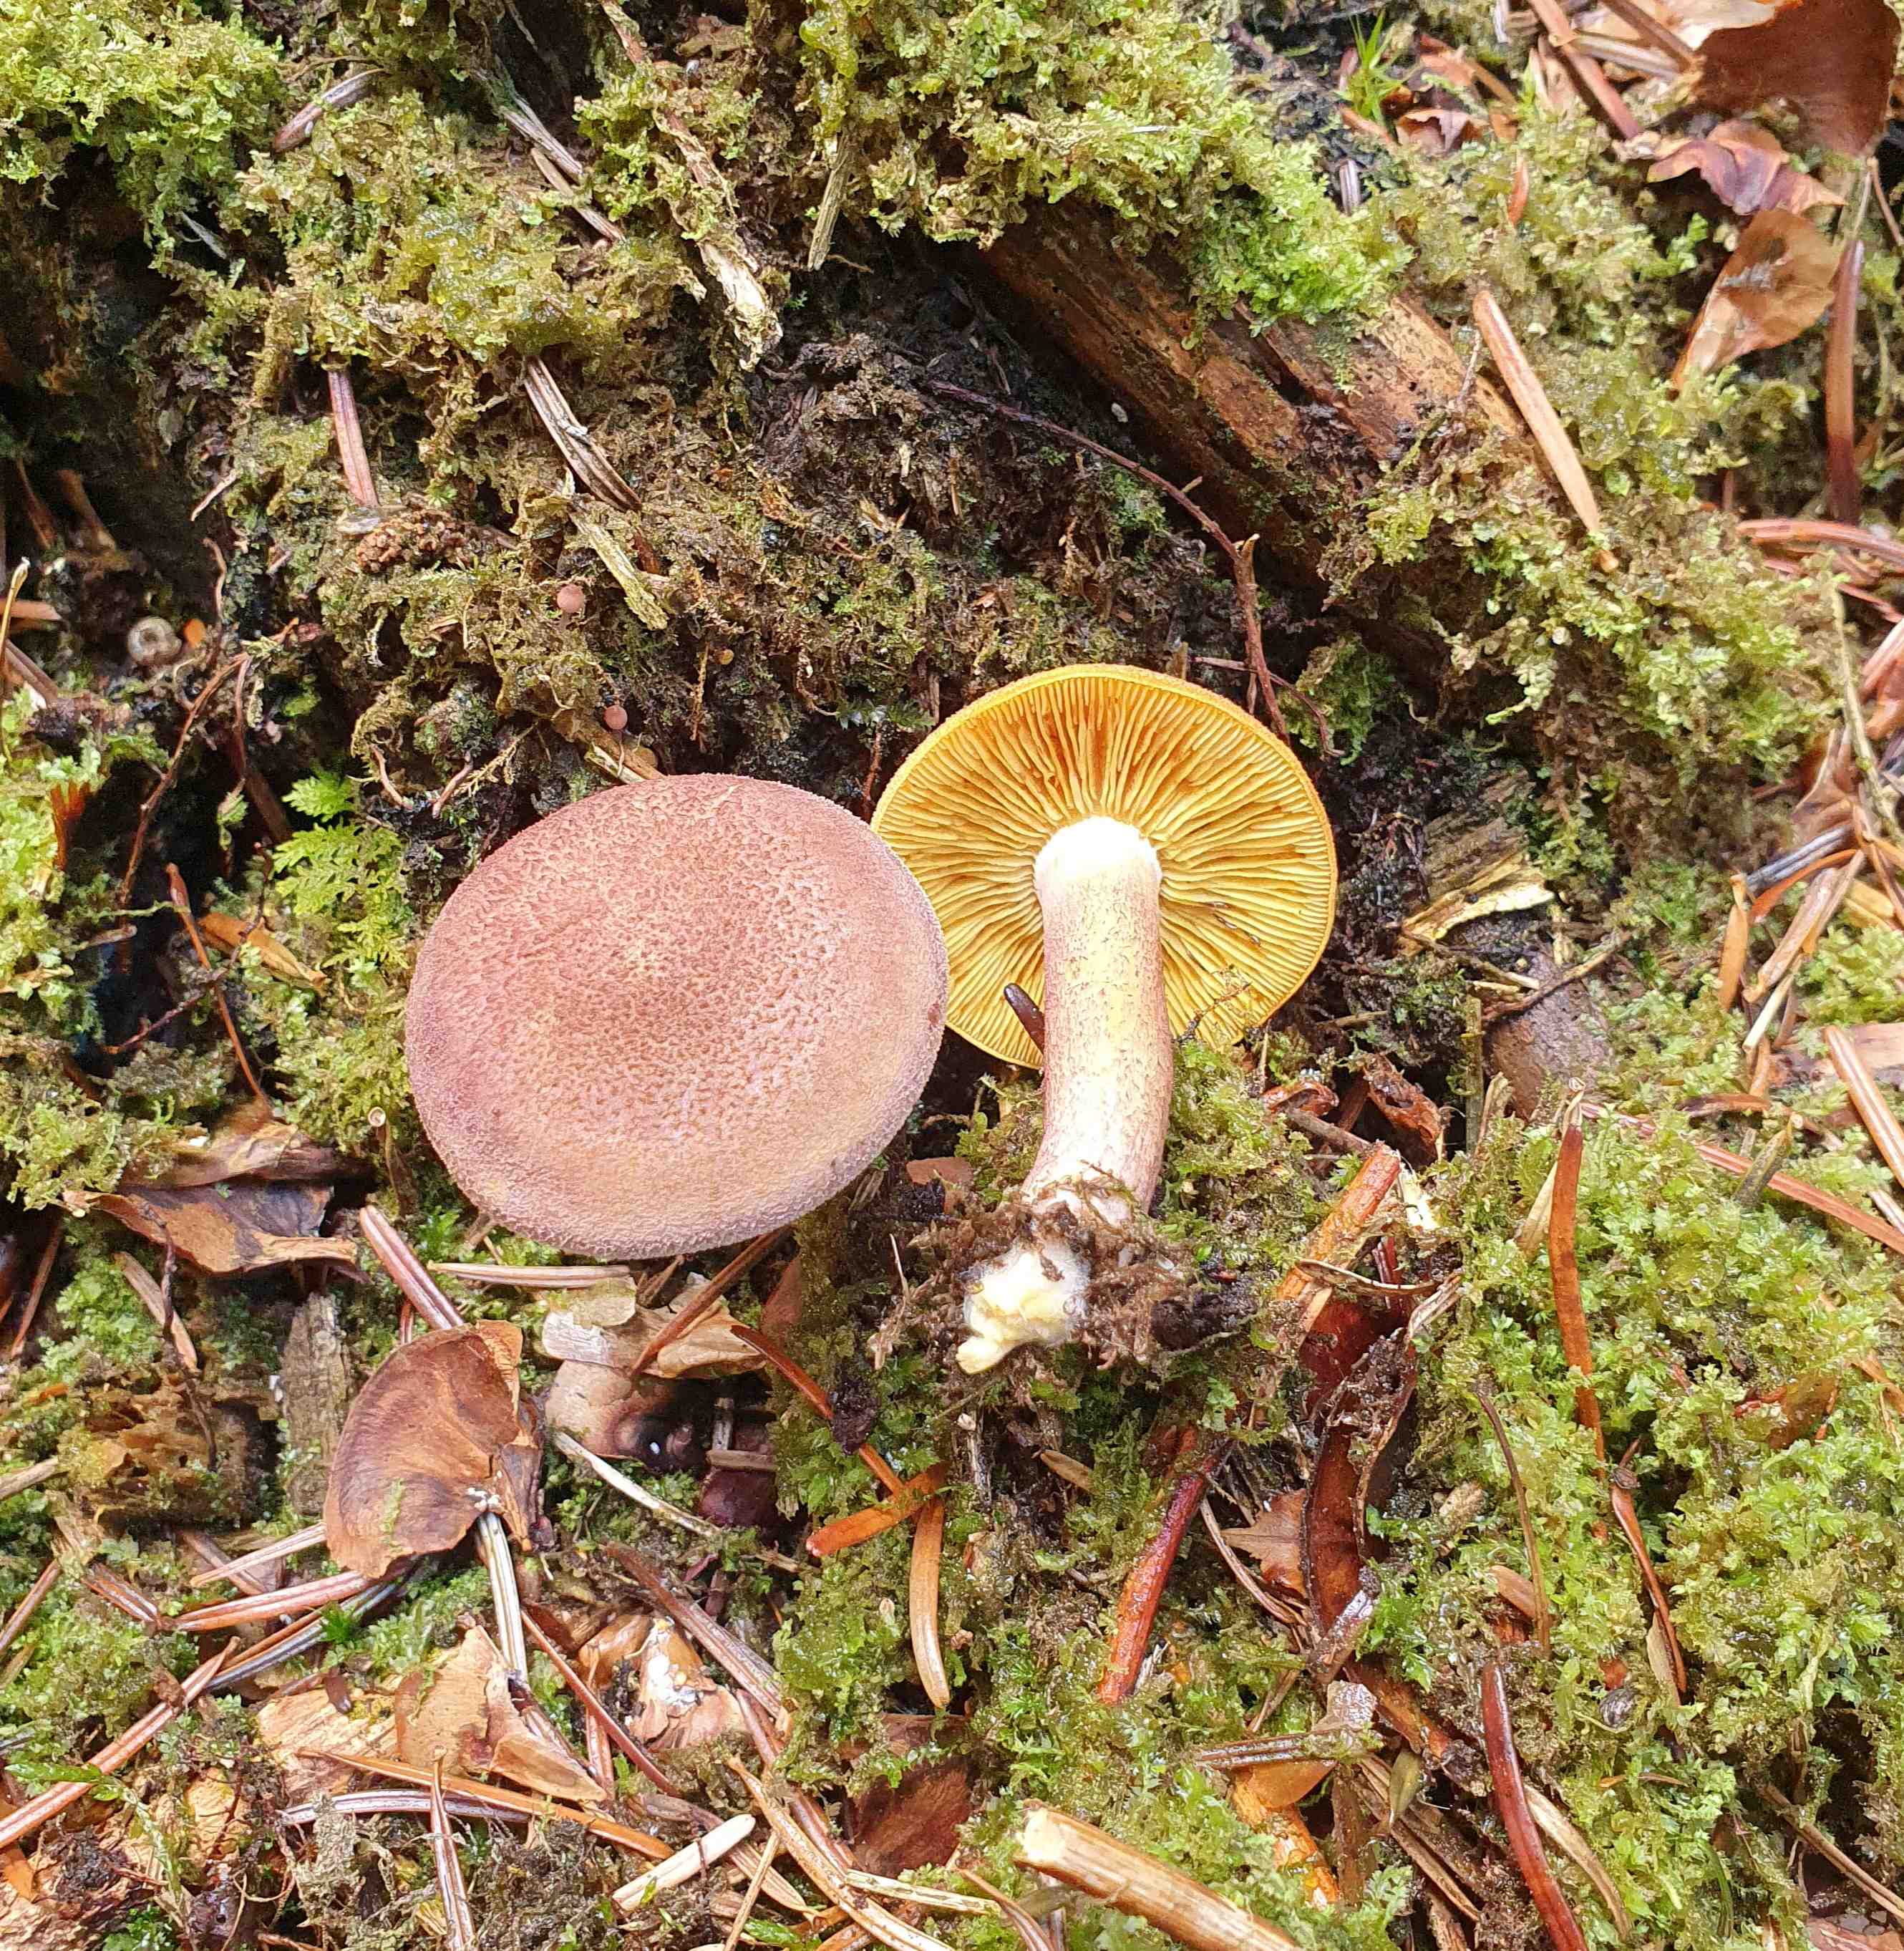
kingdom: Fungi
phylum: Basidiomycota
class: Agaricomycetes
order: Agaricales
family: Tricholomataceae
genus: Tricholomopsis
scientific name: Tricholomopsis rutilans
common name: purpur-væbnerhat
